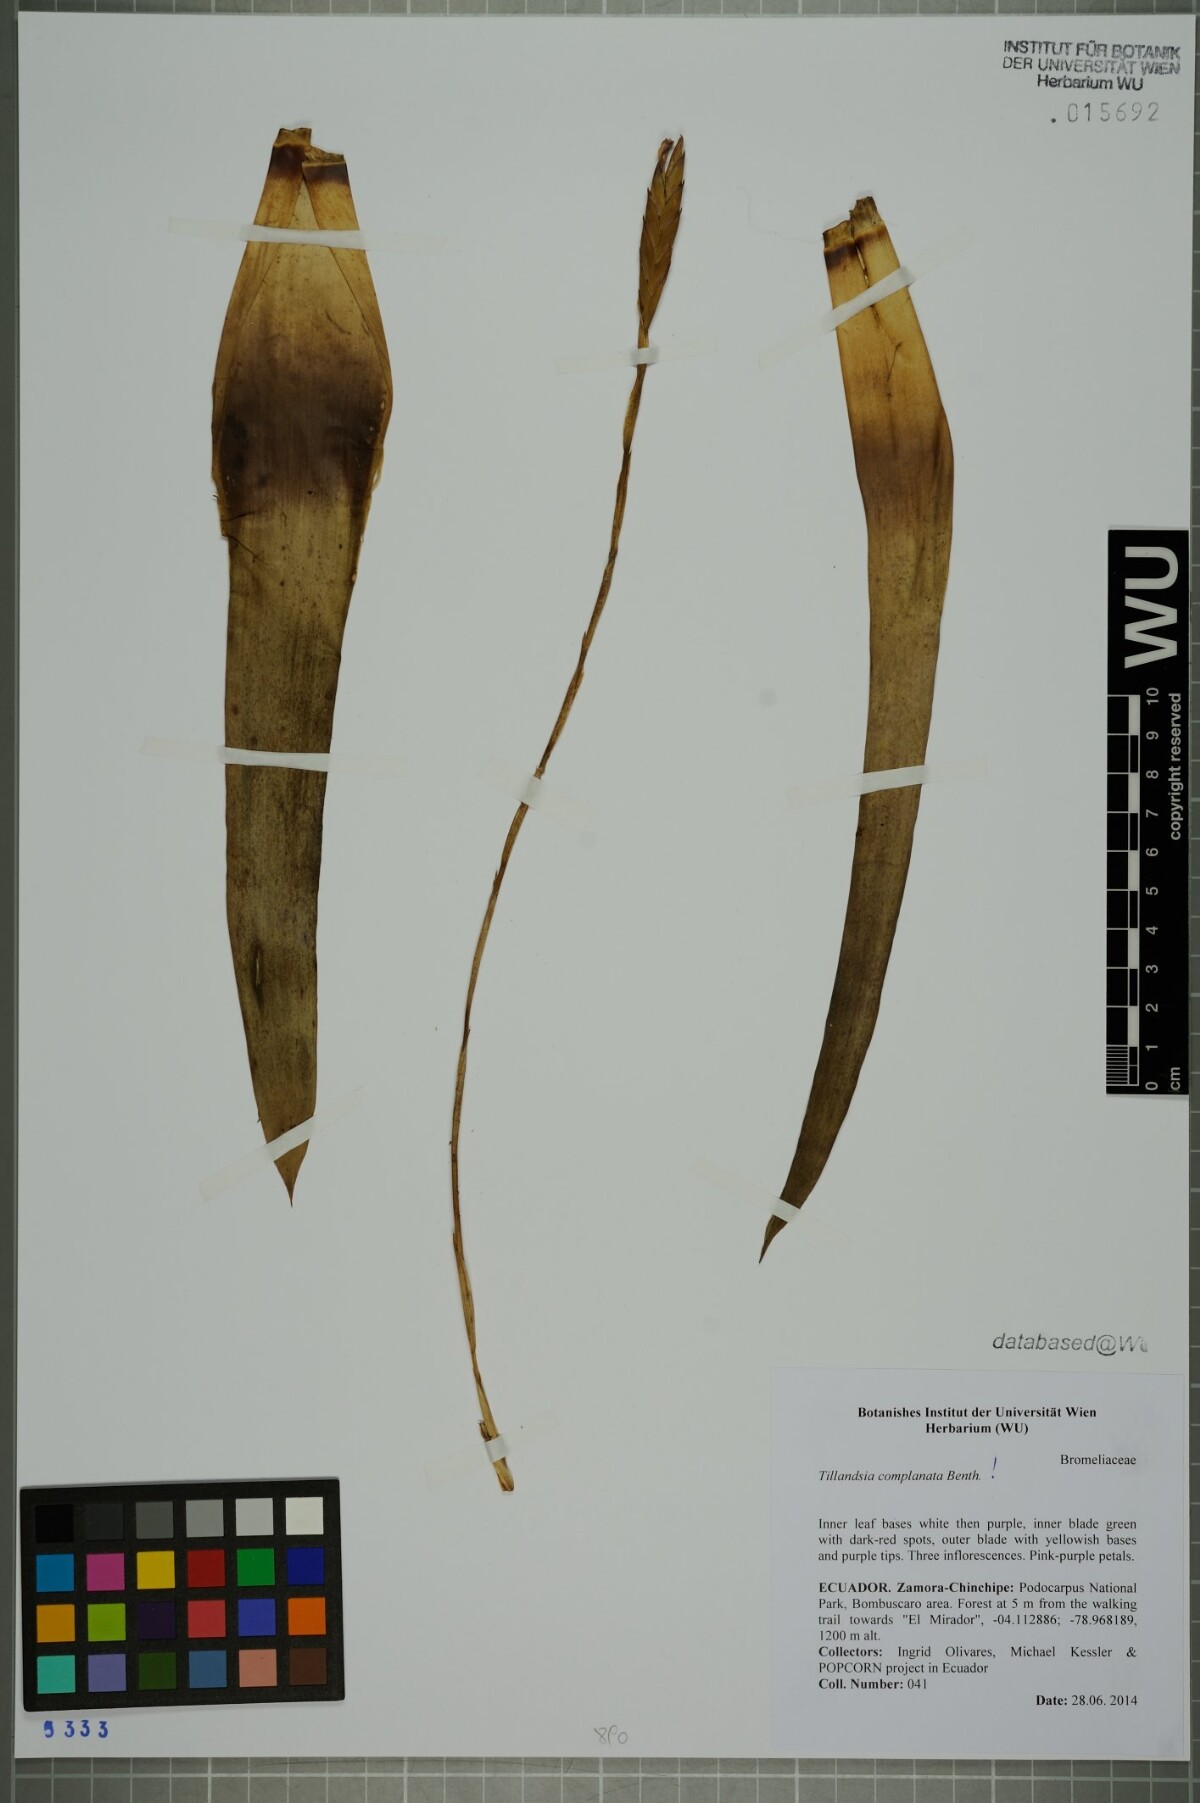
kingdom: Plantae
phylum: Tracheophyta
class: Liliopsida
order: Poales
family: Bromeliaceae
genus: Tillandsia
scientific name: Tillandsia complanata
